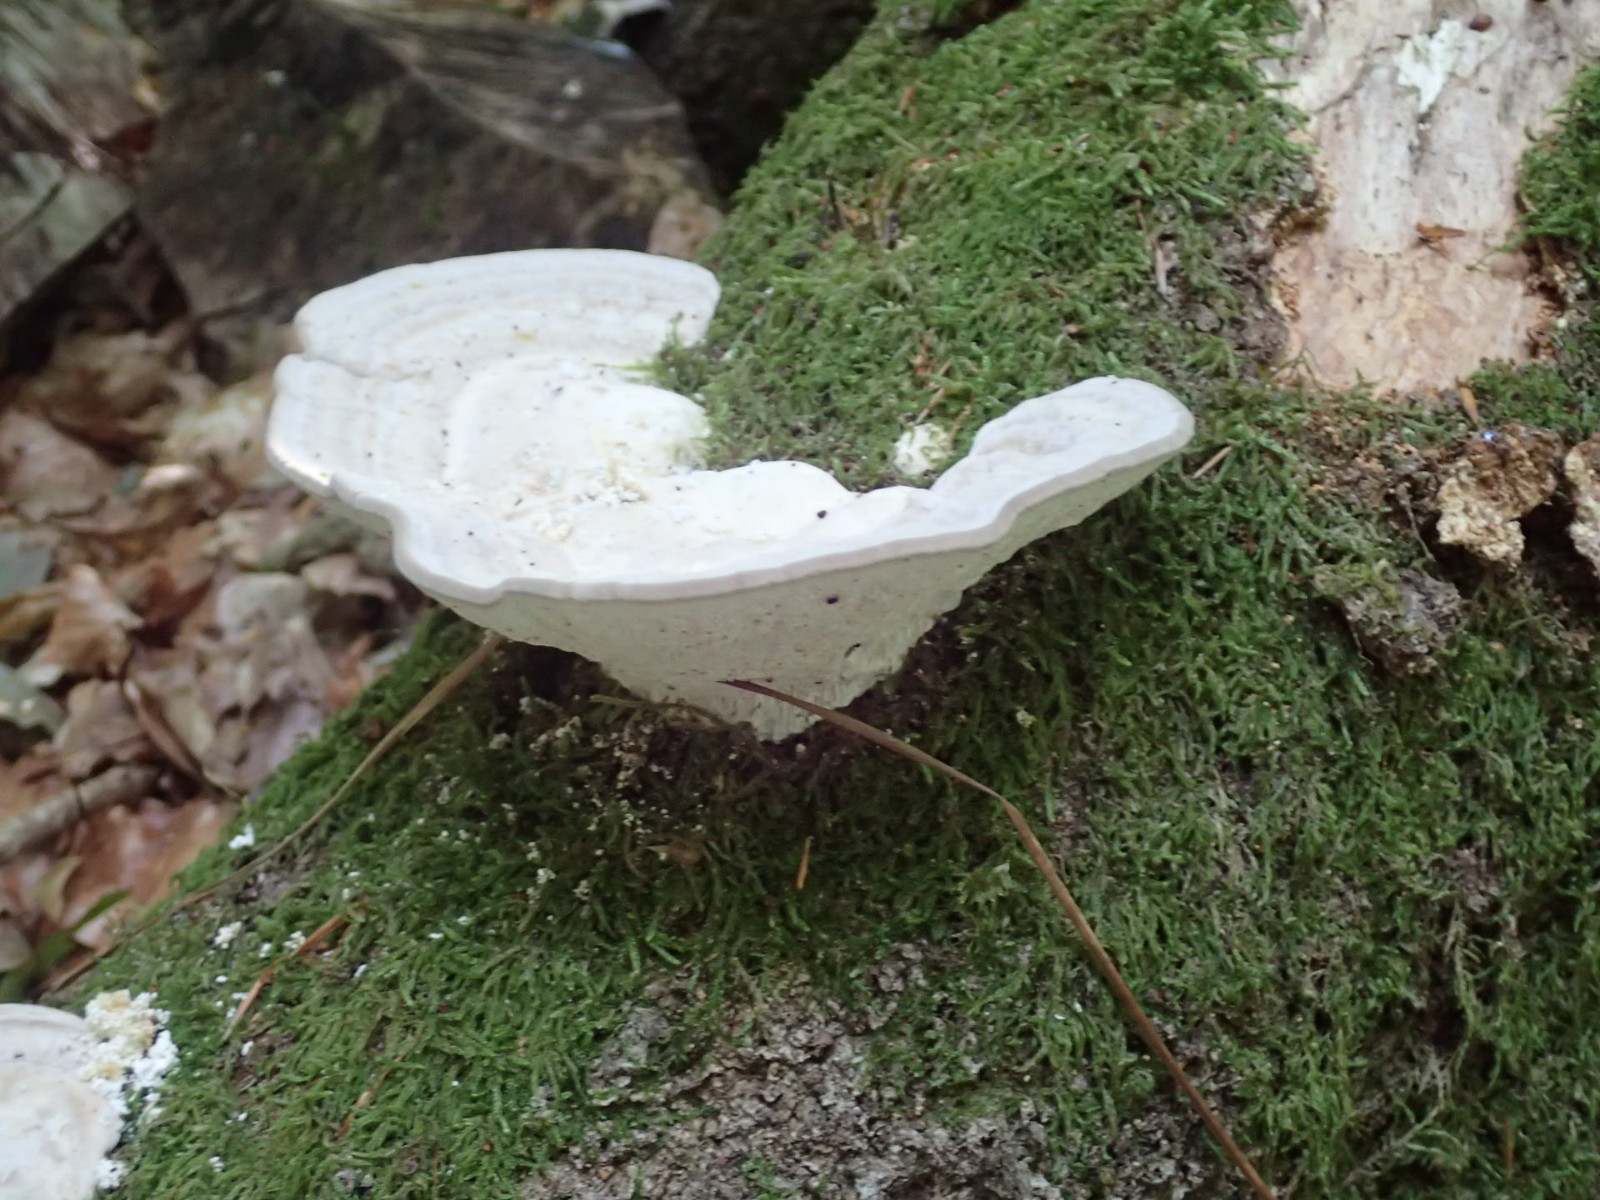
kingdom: Fungi
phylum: Basidiomycota
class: Agaricomycetes
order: Polyporales
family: Polyporaceae
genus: Trametes
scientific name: Trametes gibbosa
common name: puklet læderporesvamp
